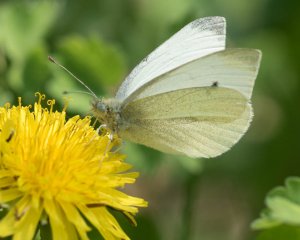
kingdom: Animalia
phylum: Arthropoda
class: Insecta
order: Lepidoptera
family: Pieridae
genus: Pieris
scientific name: Pieris rapae
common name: Cabbage White
